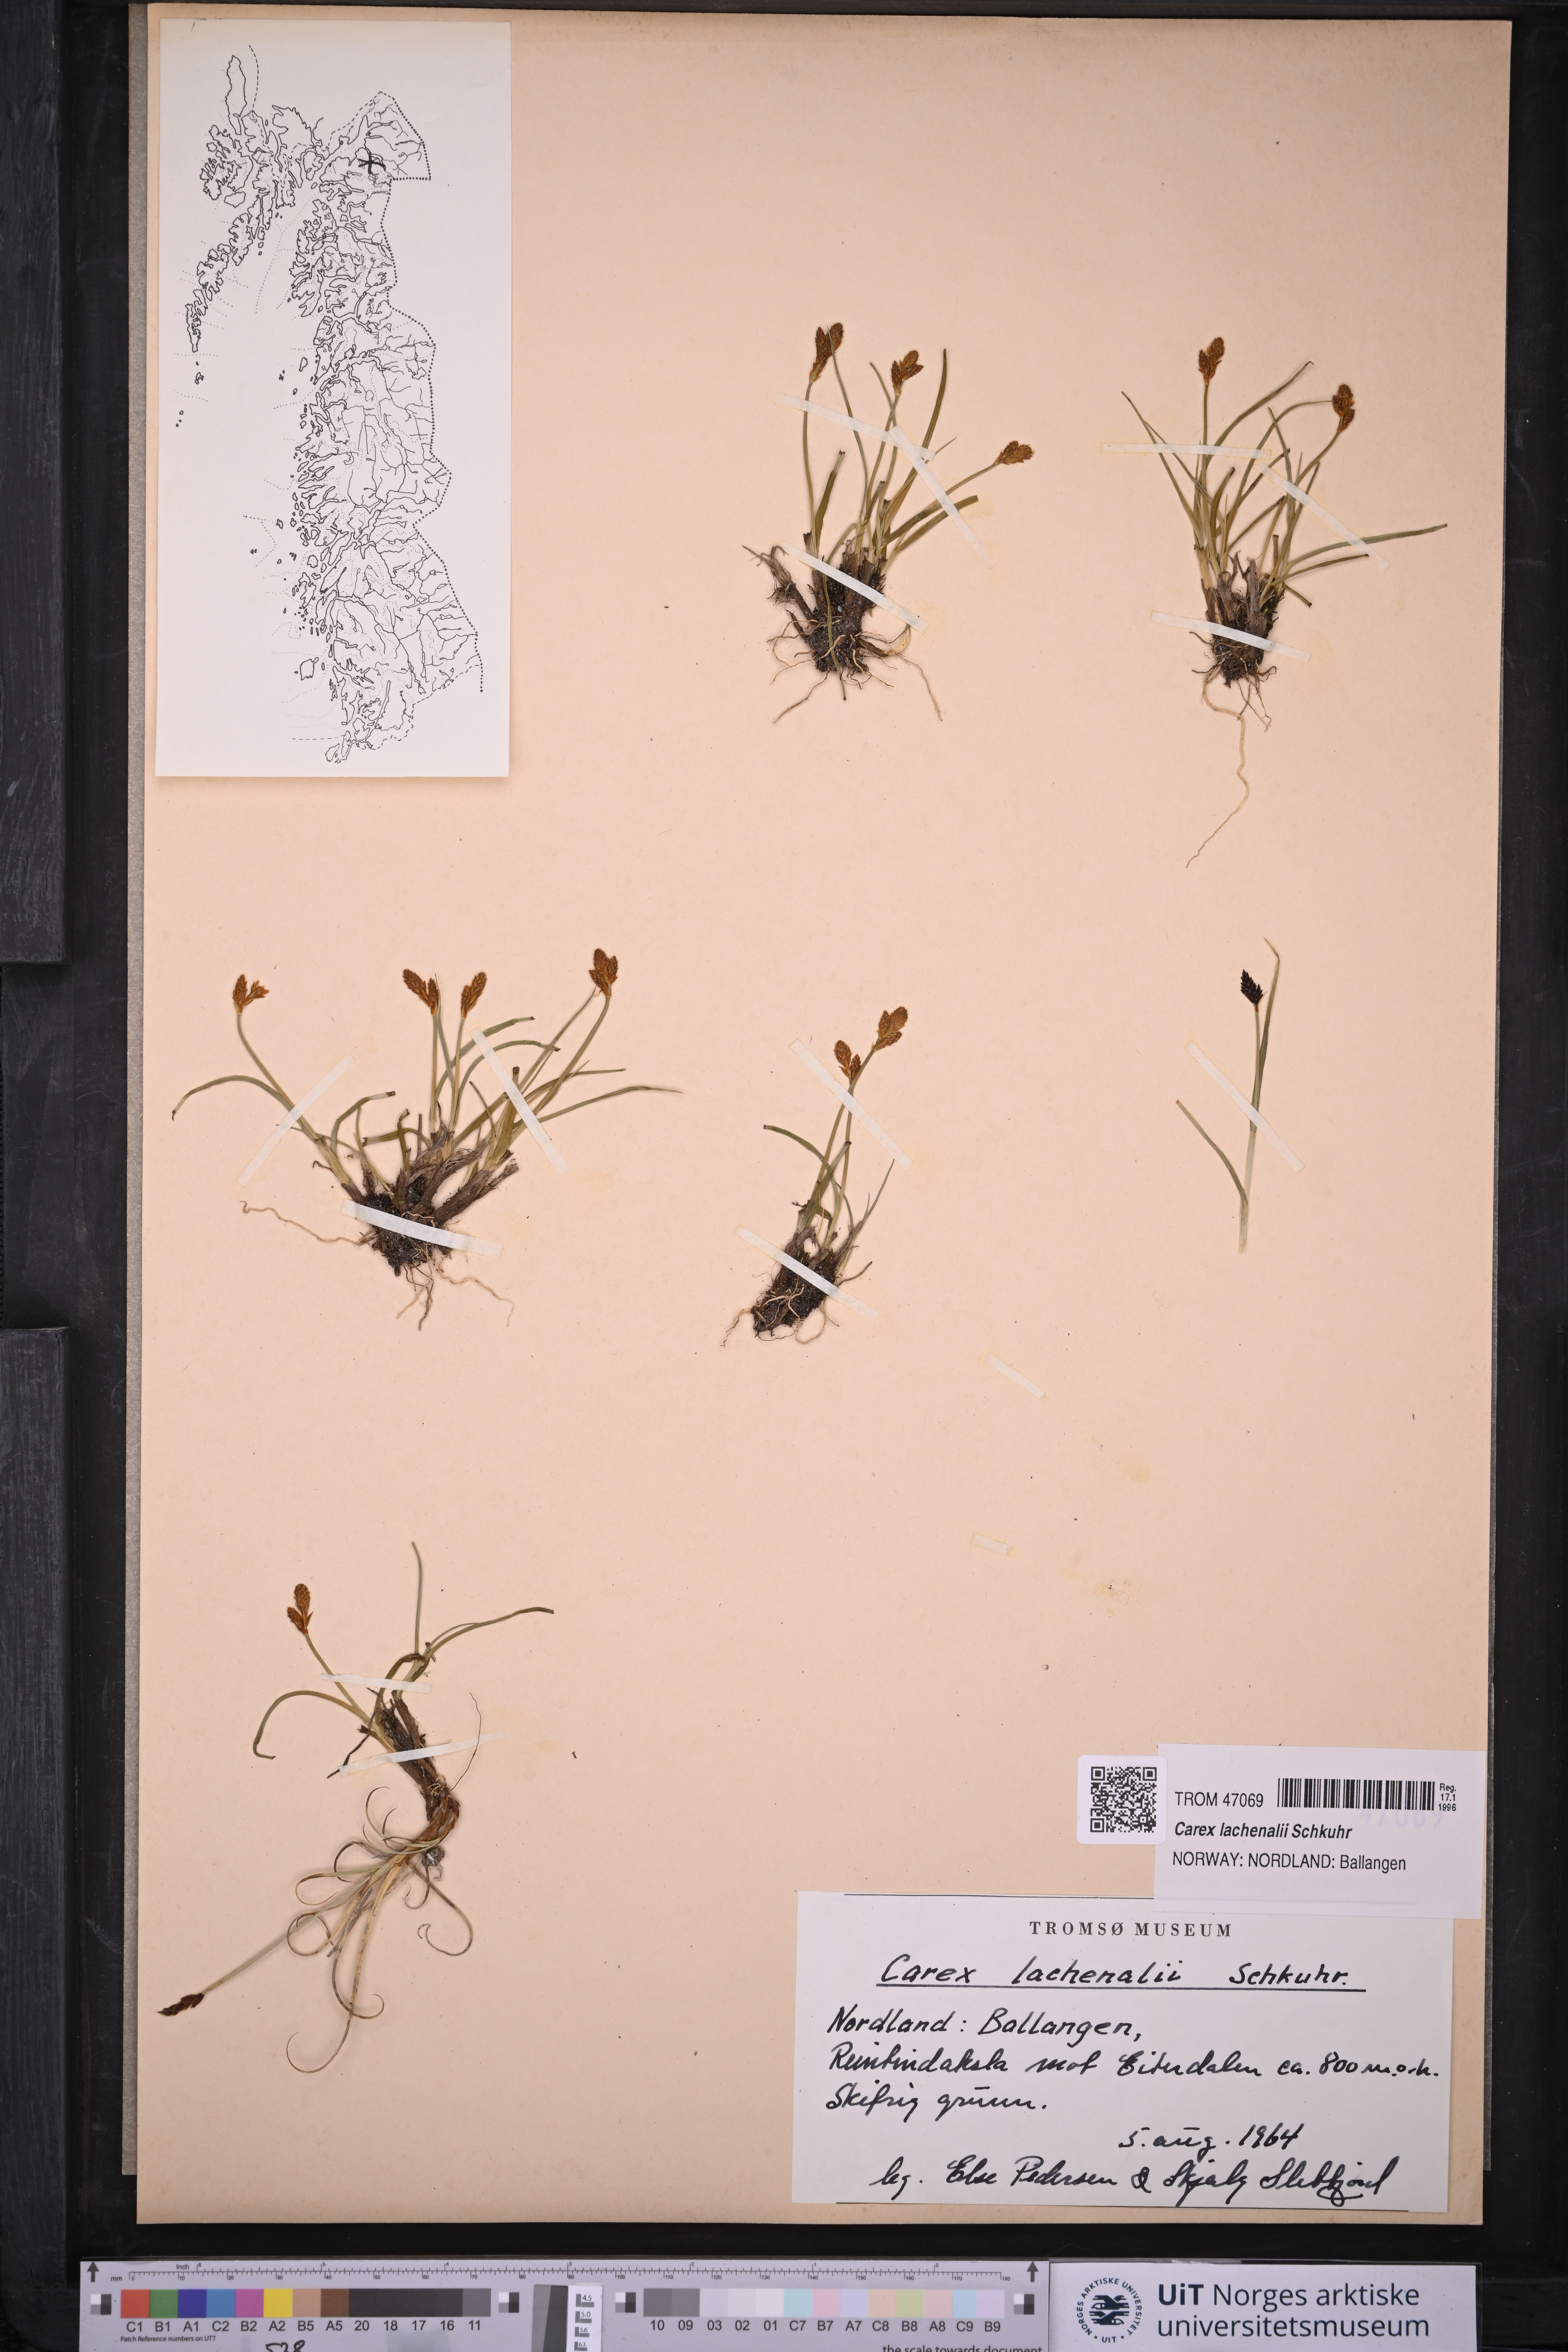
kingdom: Plantae
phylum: Tracheophyta
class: Liliopsida
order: Poales
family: Cyperaceae
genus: Carex
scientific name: Carex lachenalii
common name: Hare's-foot sedge
